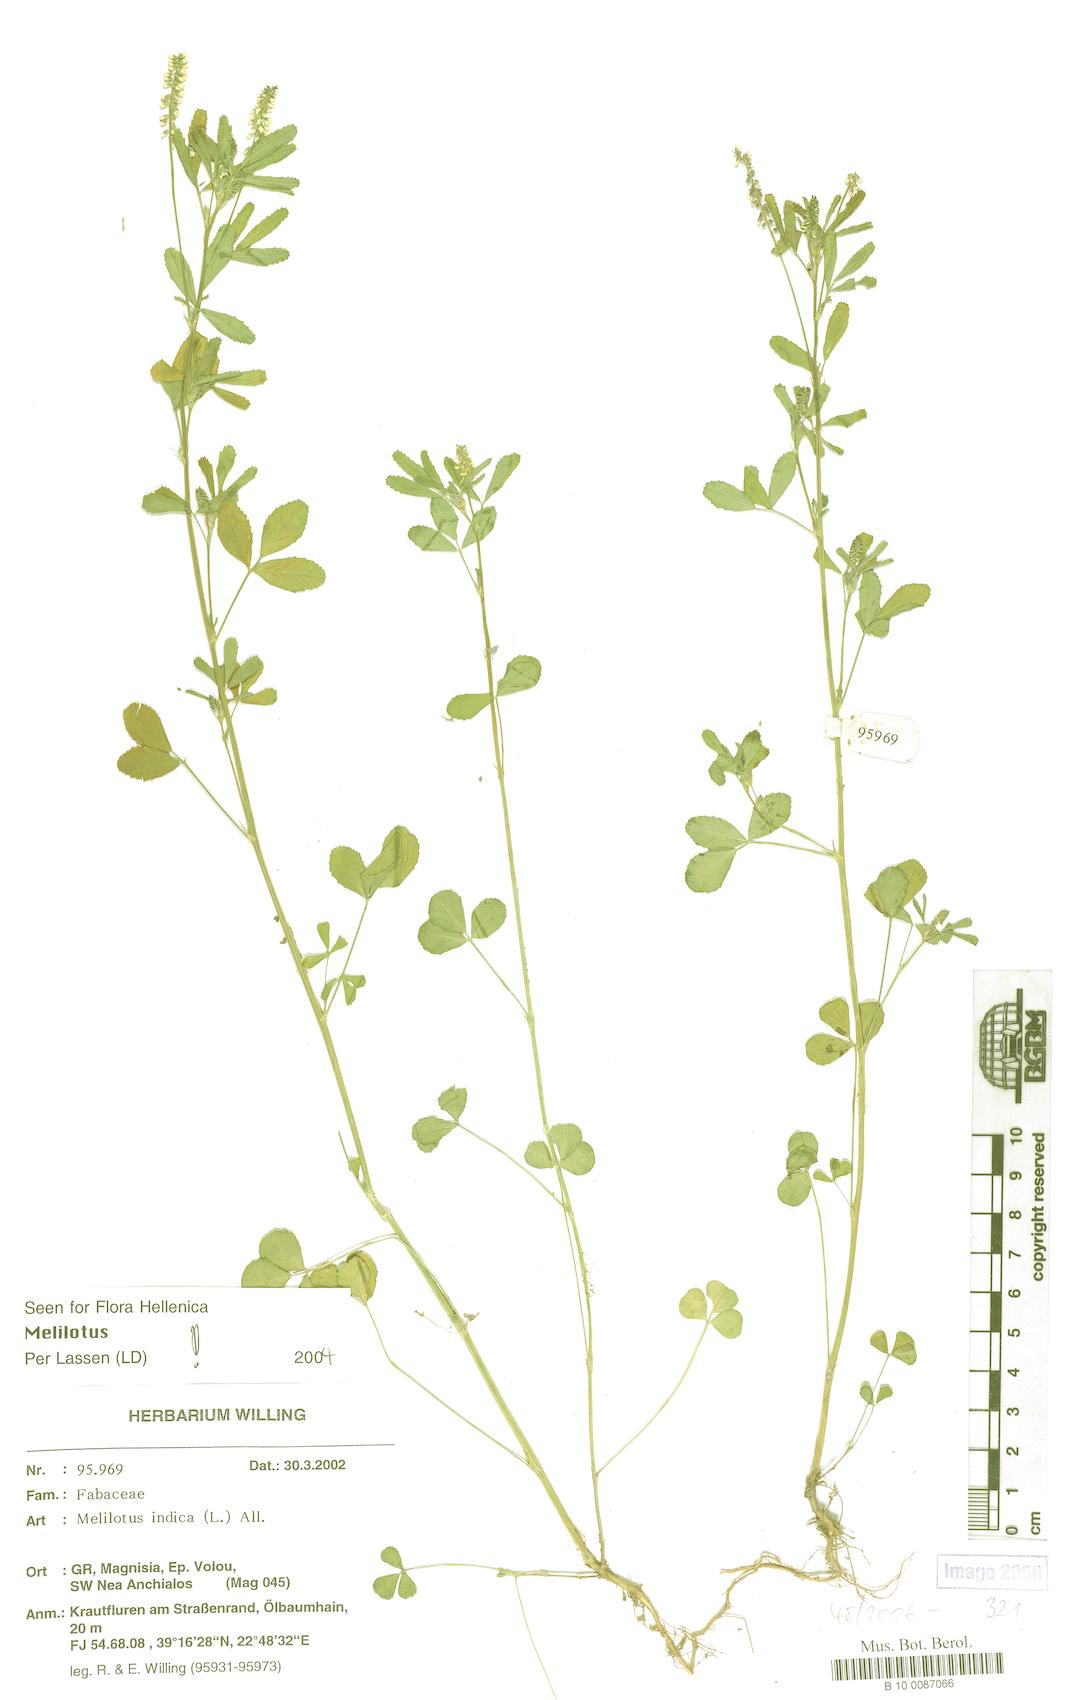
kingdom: Plantae
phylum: Tracheophyta
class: Magnoliopsida
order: Fabales
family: Fabaceae
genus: Melilotus
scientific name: Melilotus indicus
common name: Small melilot
